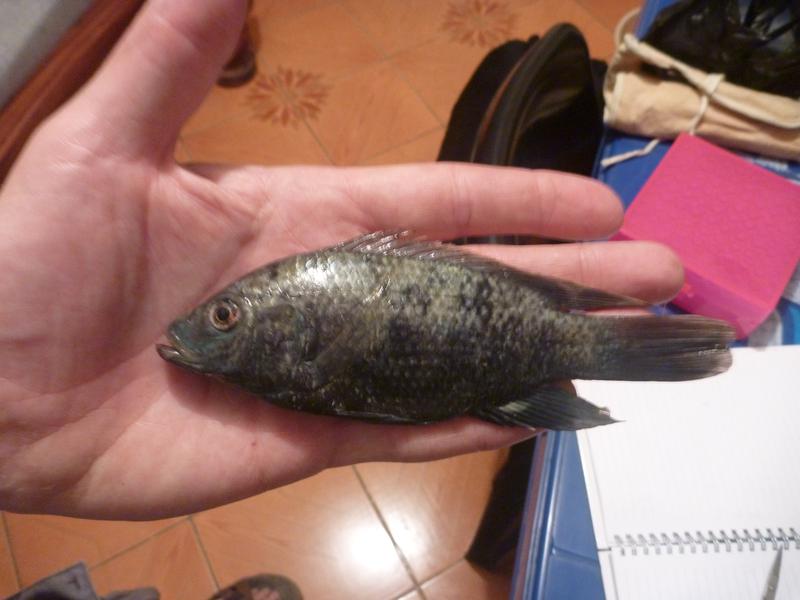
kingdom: Animalia
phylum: Chordata
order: Perciformes
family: Cichlidae
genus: Oreochromis
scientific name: Oreochromis urolepis
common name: Wami tilapia
